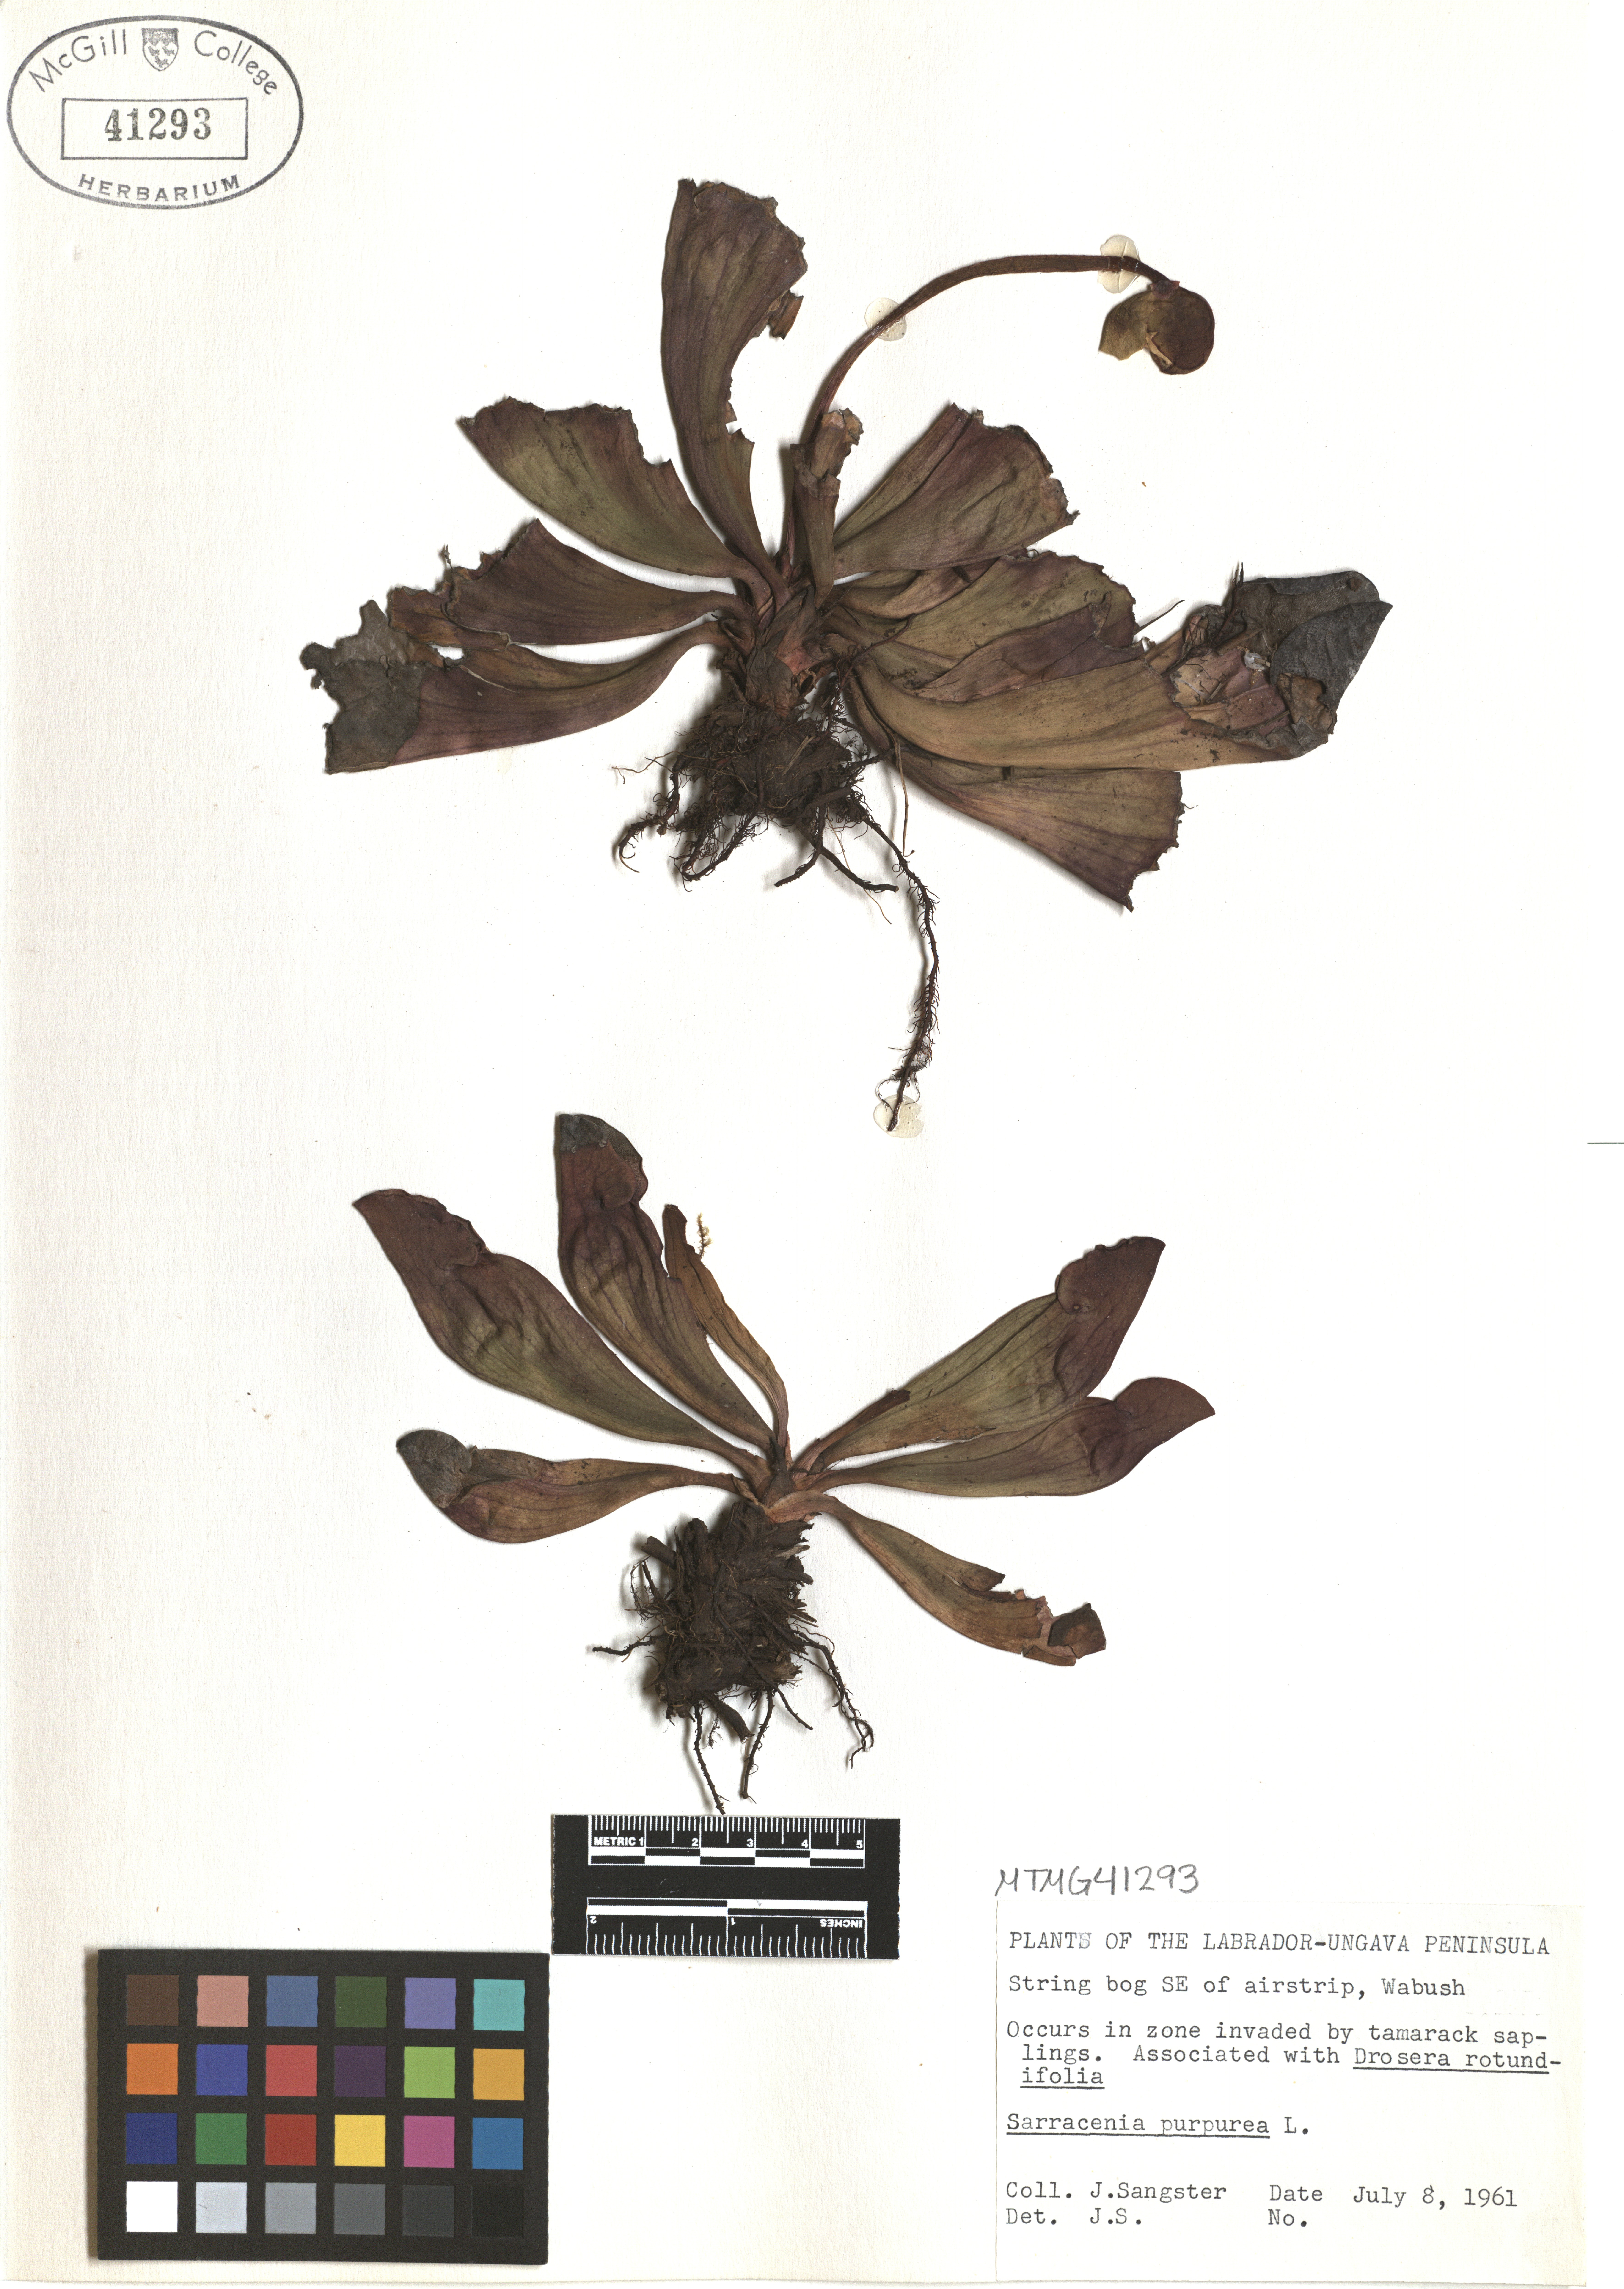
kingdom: Plantae
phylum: Tracheophyta
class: Magnoliopsida
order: Ericales
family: Sarraceniaceae
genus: Sarracenia
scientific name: Sarracenia purpurea
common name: Pitcherplant
